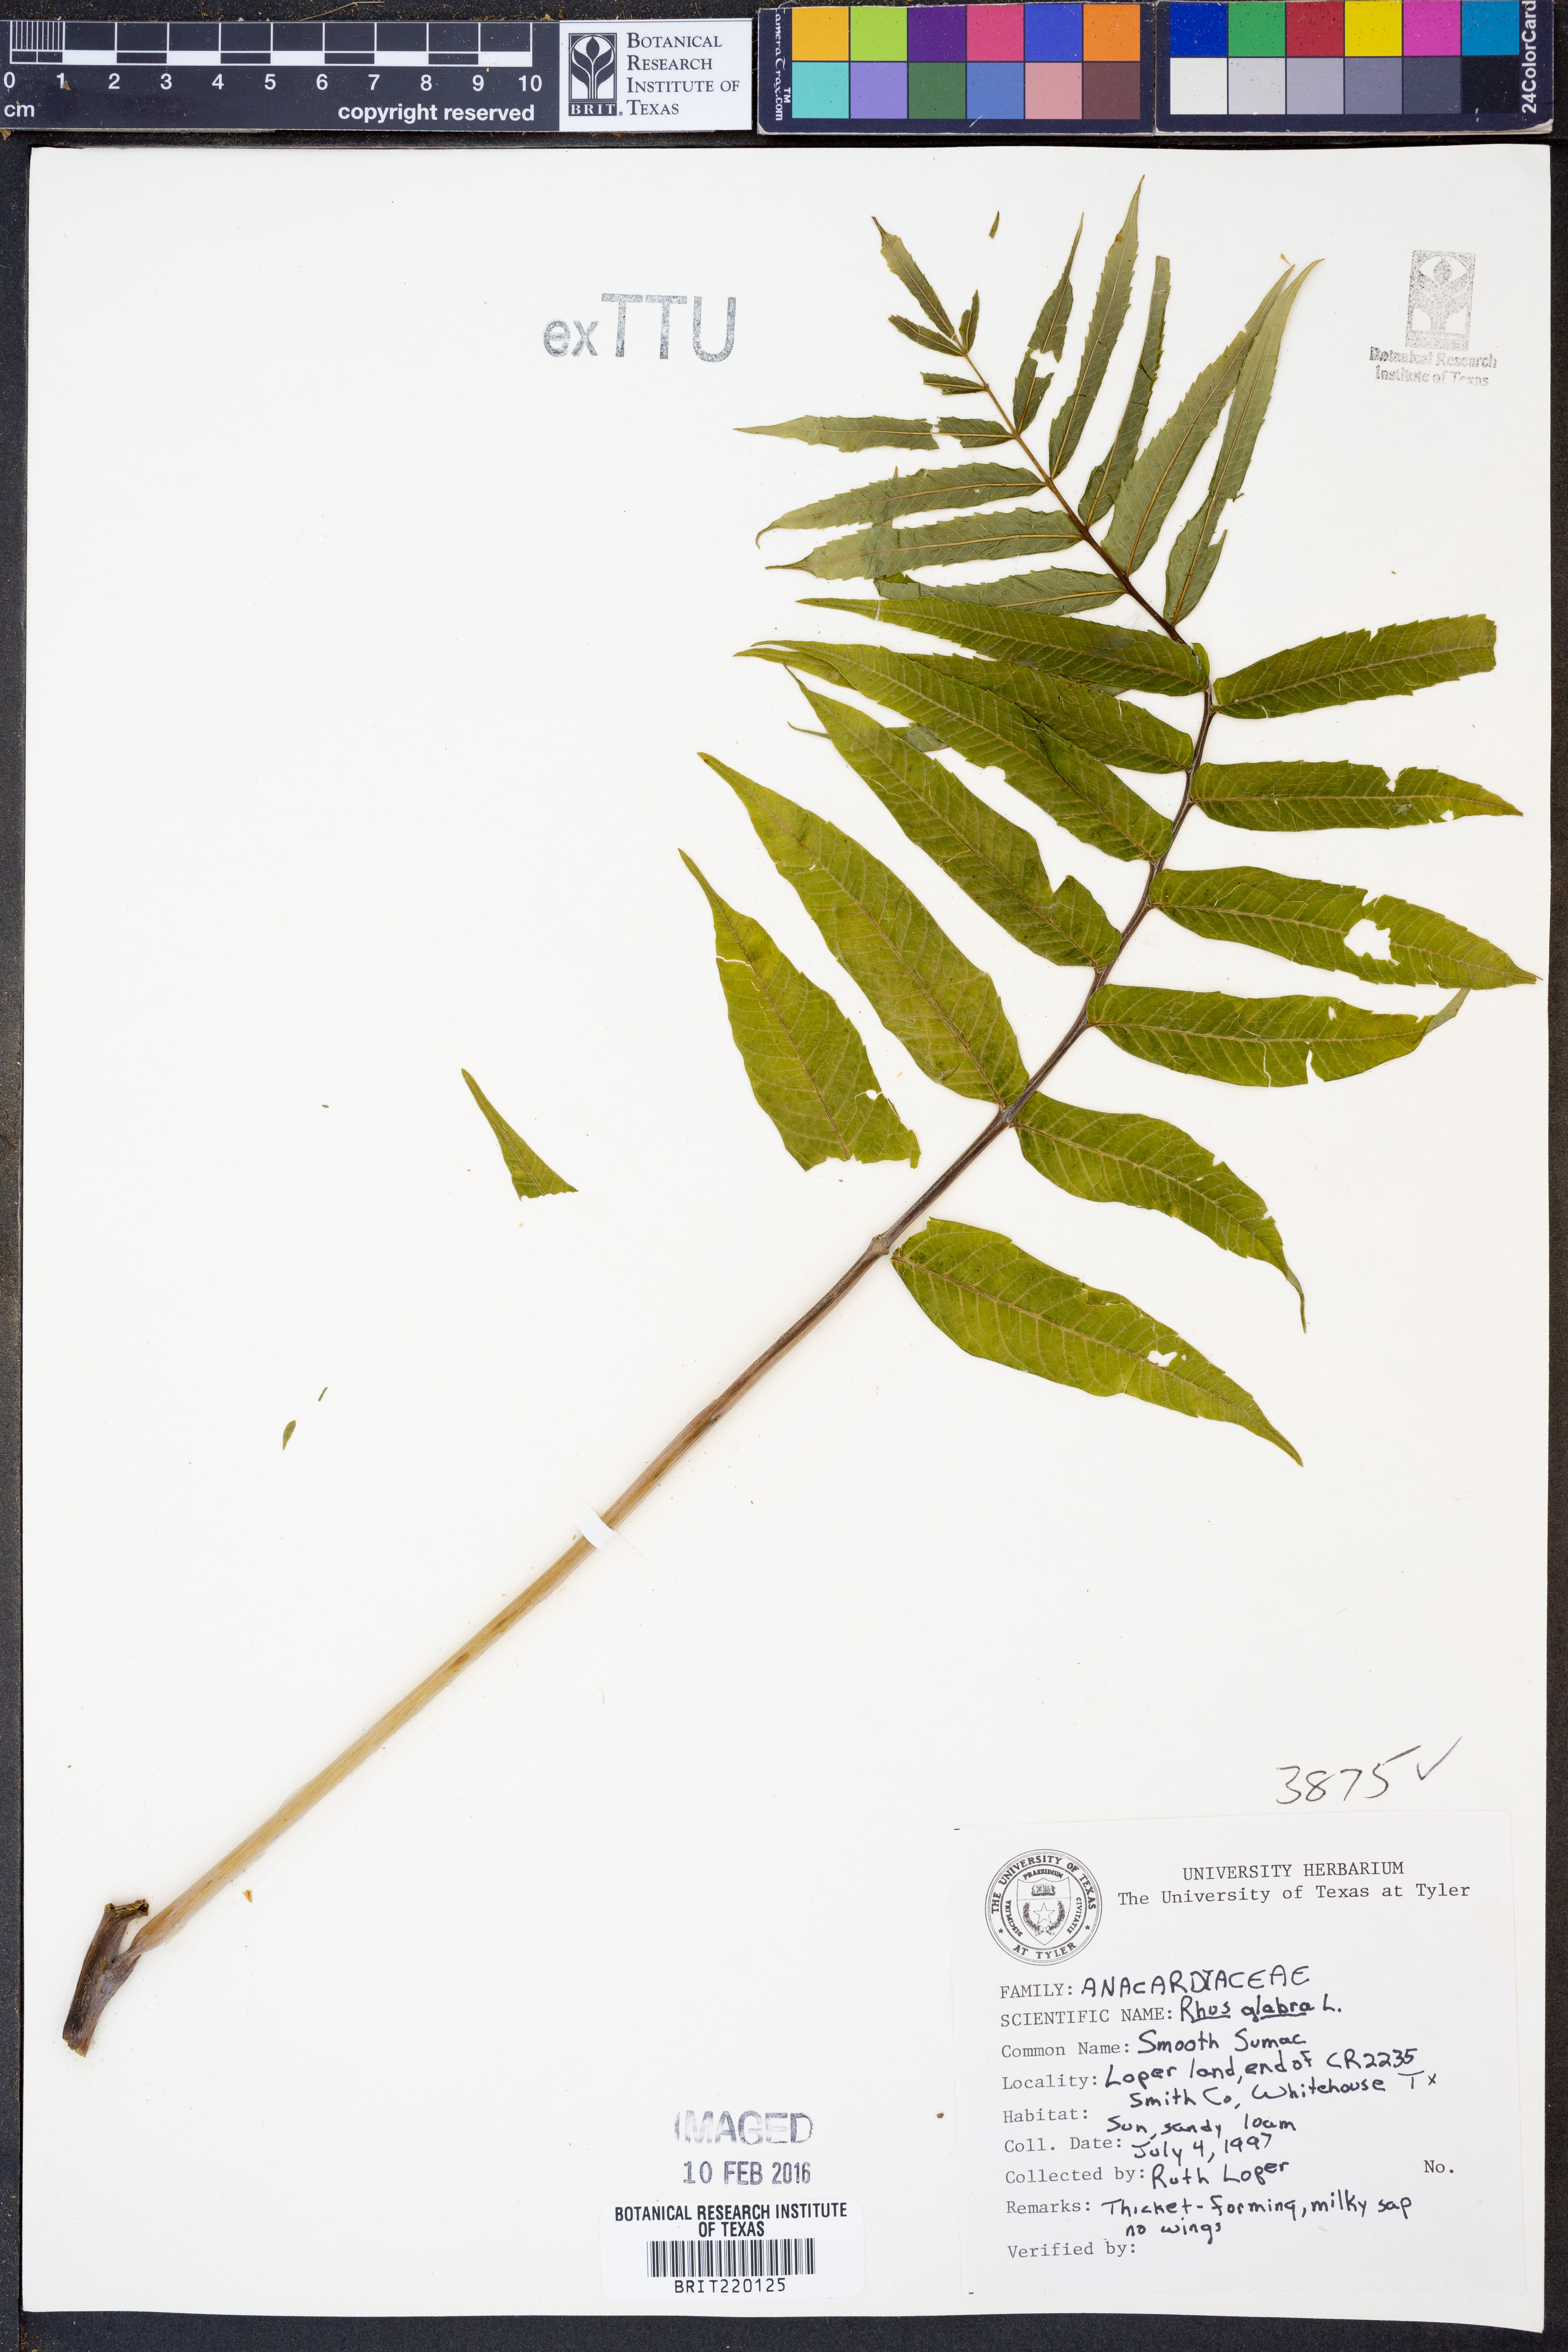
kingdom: Plantae
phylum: Tracheophyta
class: Magnoliopsida
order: Sapindales
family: Anacardiaceae
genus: Rhus
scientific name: Rhus glabra
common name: Scarlet sumac
